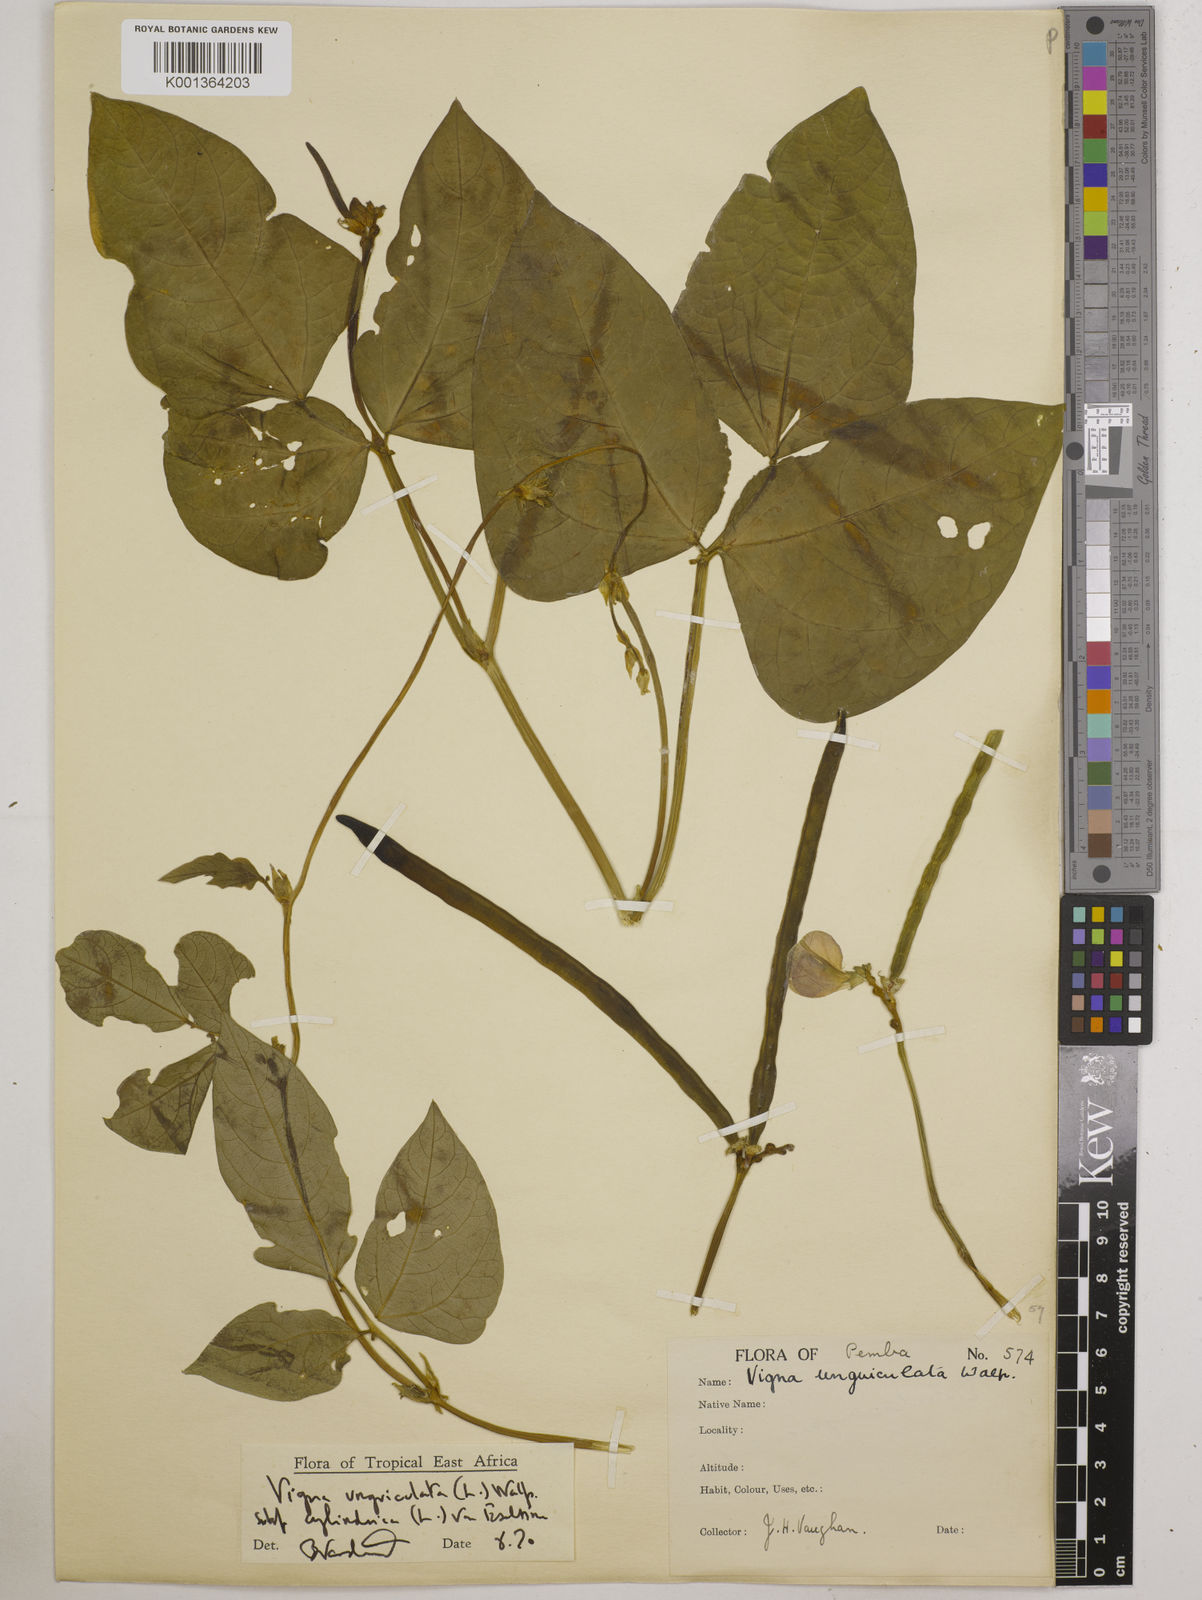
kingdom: Plantae
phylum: Tracheophyta
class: Magnoliopsida
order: Fabales
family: Fabaceae
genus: Vigna
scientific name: Vigna
